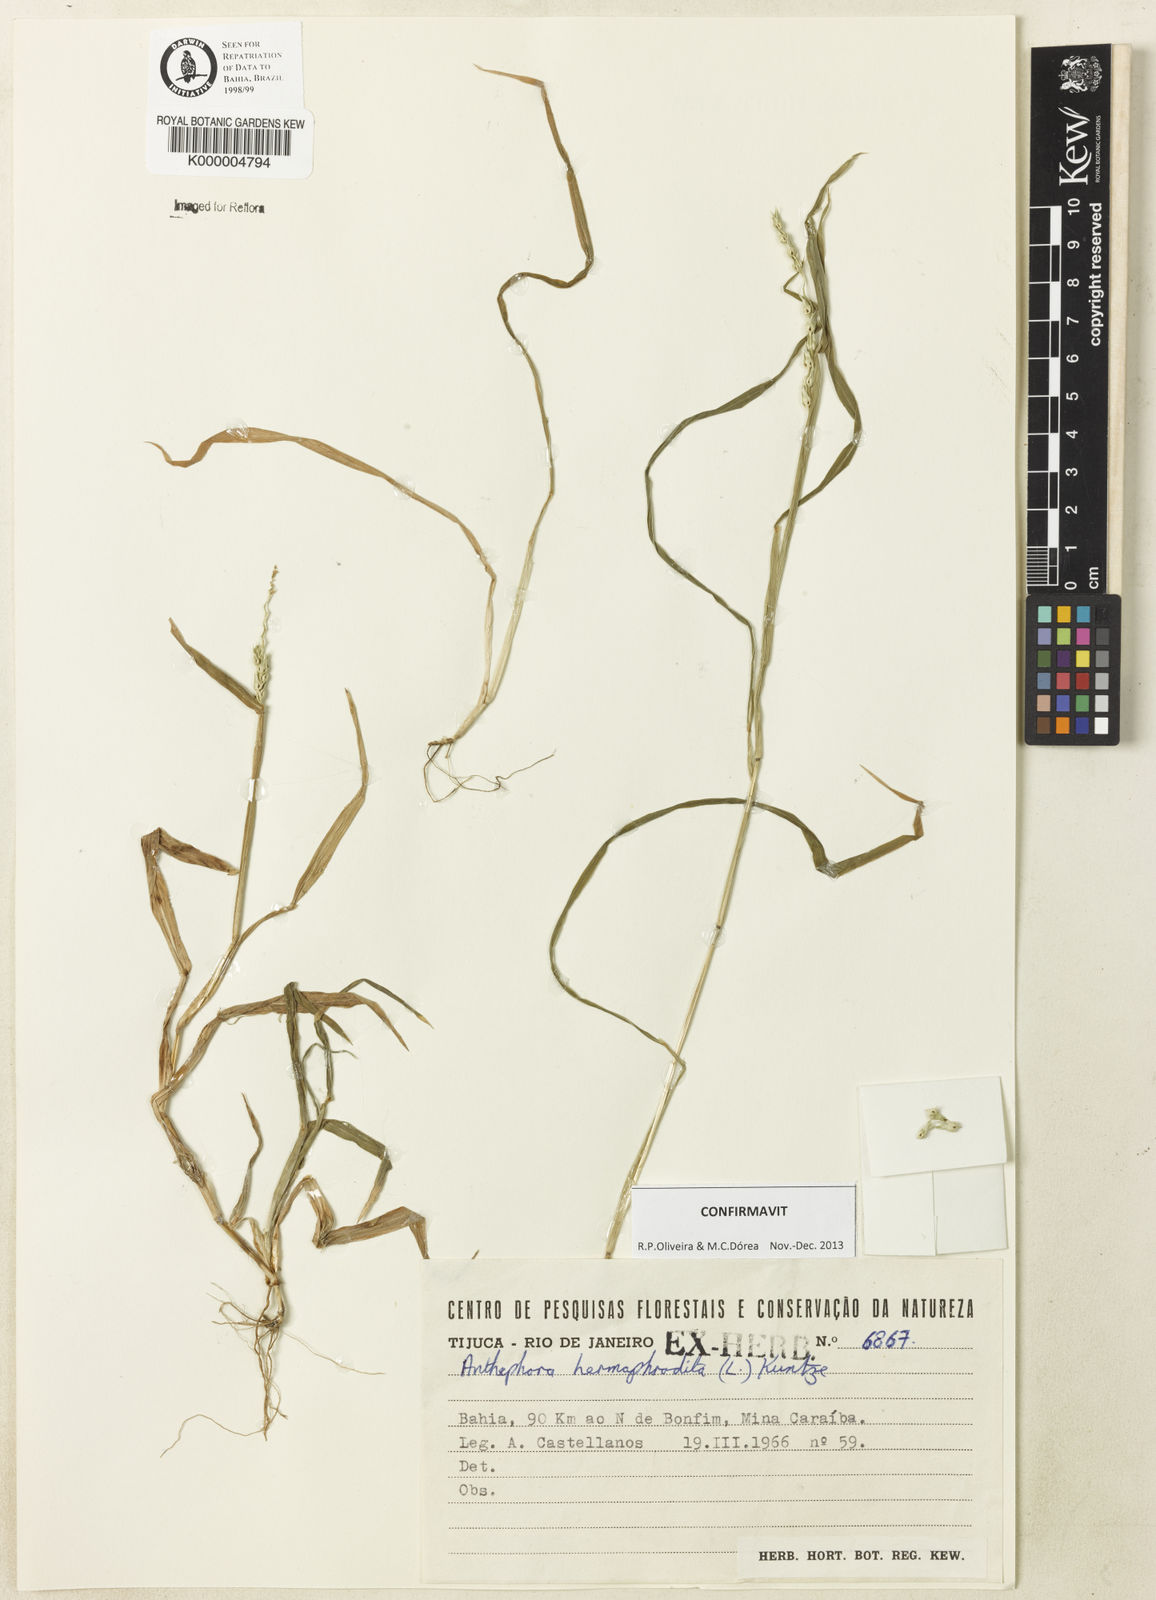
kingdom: Plantae
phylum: Tracheophyta
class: Liliopsida
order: Poales
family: Poaceae
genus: Anthephora
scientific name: Anthephora hermaphrodita
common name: Oldfield grass
